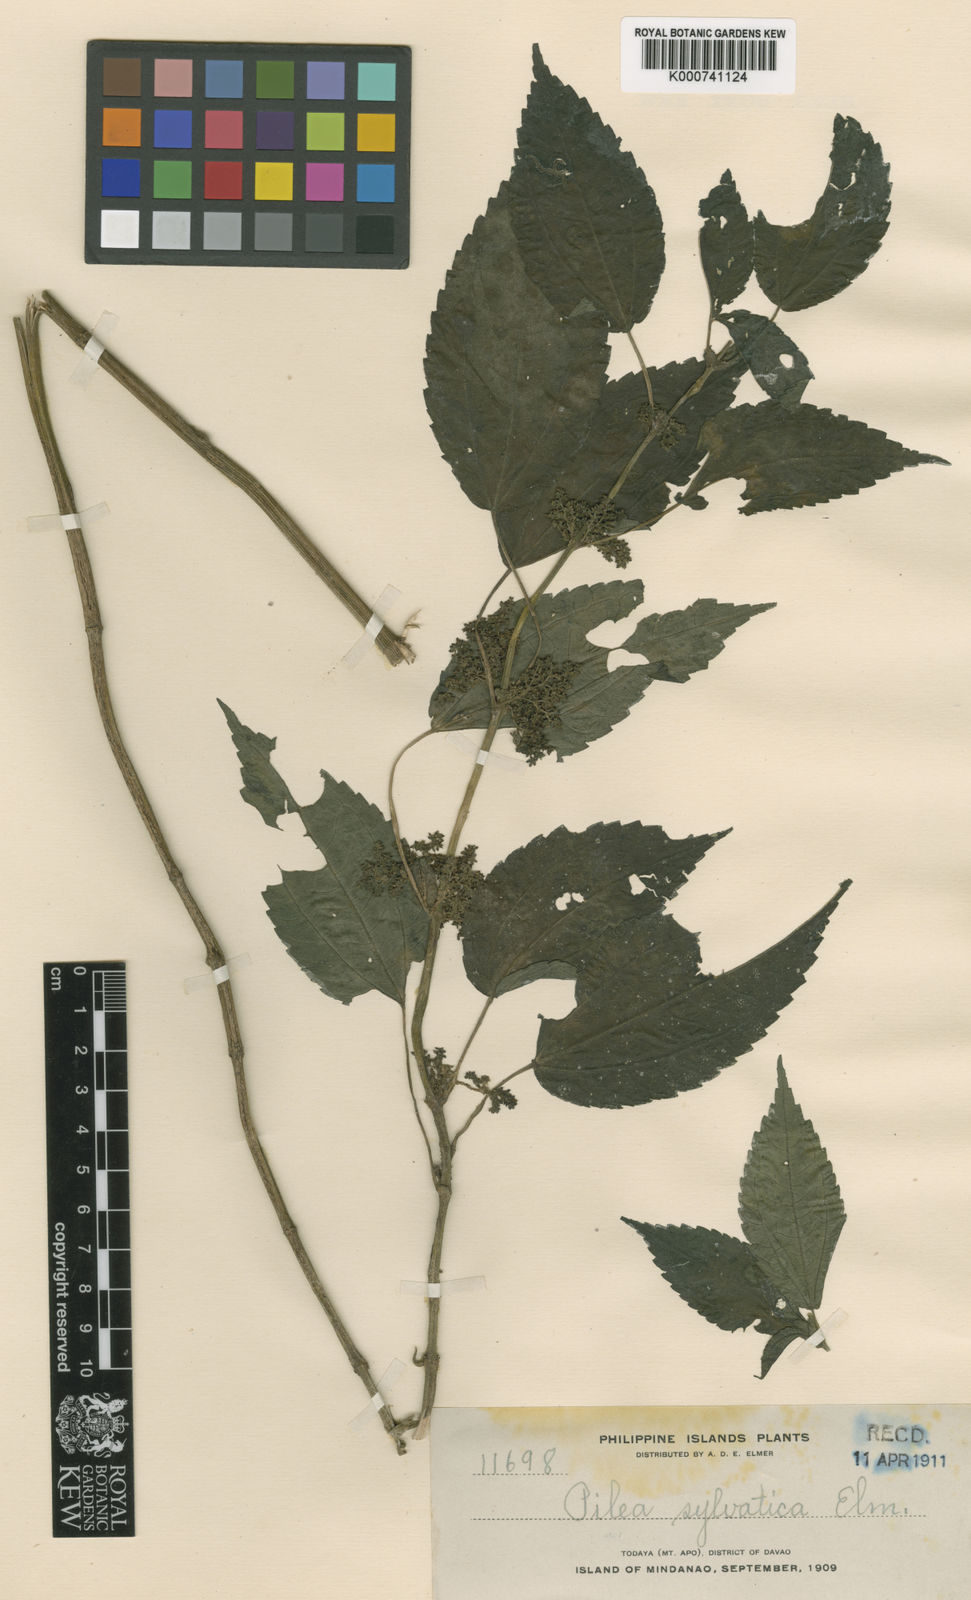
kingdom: Plantae
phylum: Tracheophyta
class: Magnoliopsida
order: Rosales
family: Urticaceae
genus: Pilea
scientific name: Pilea sylvatica
